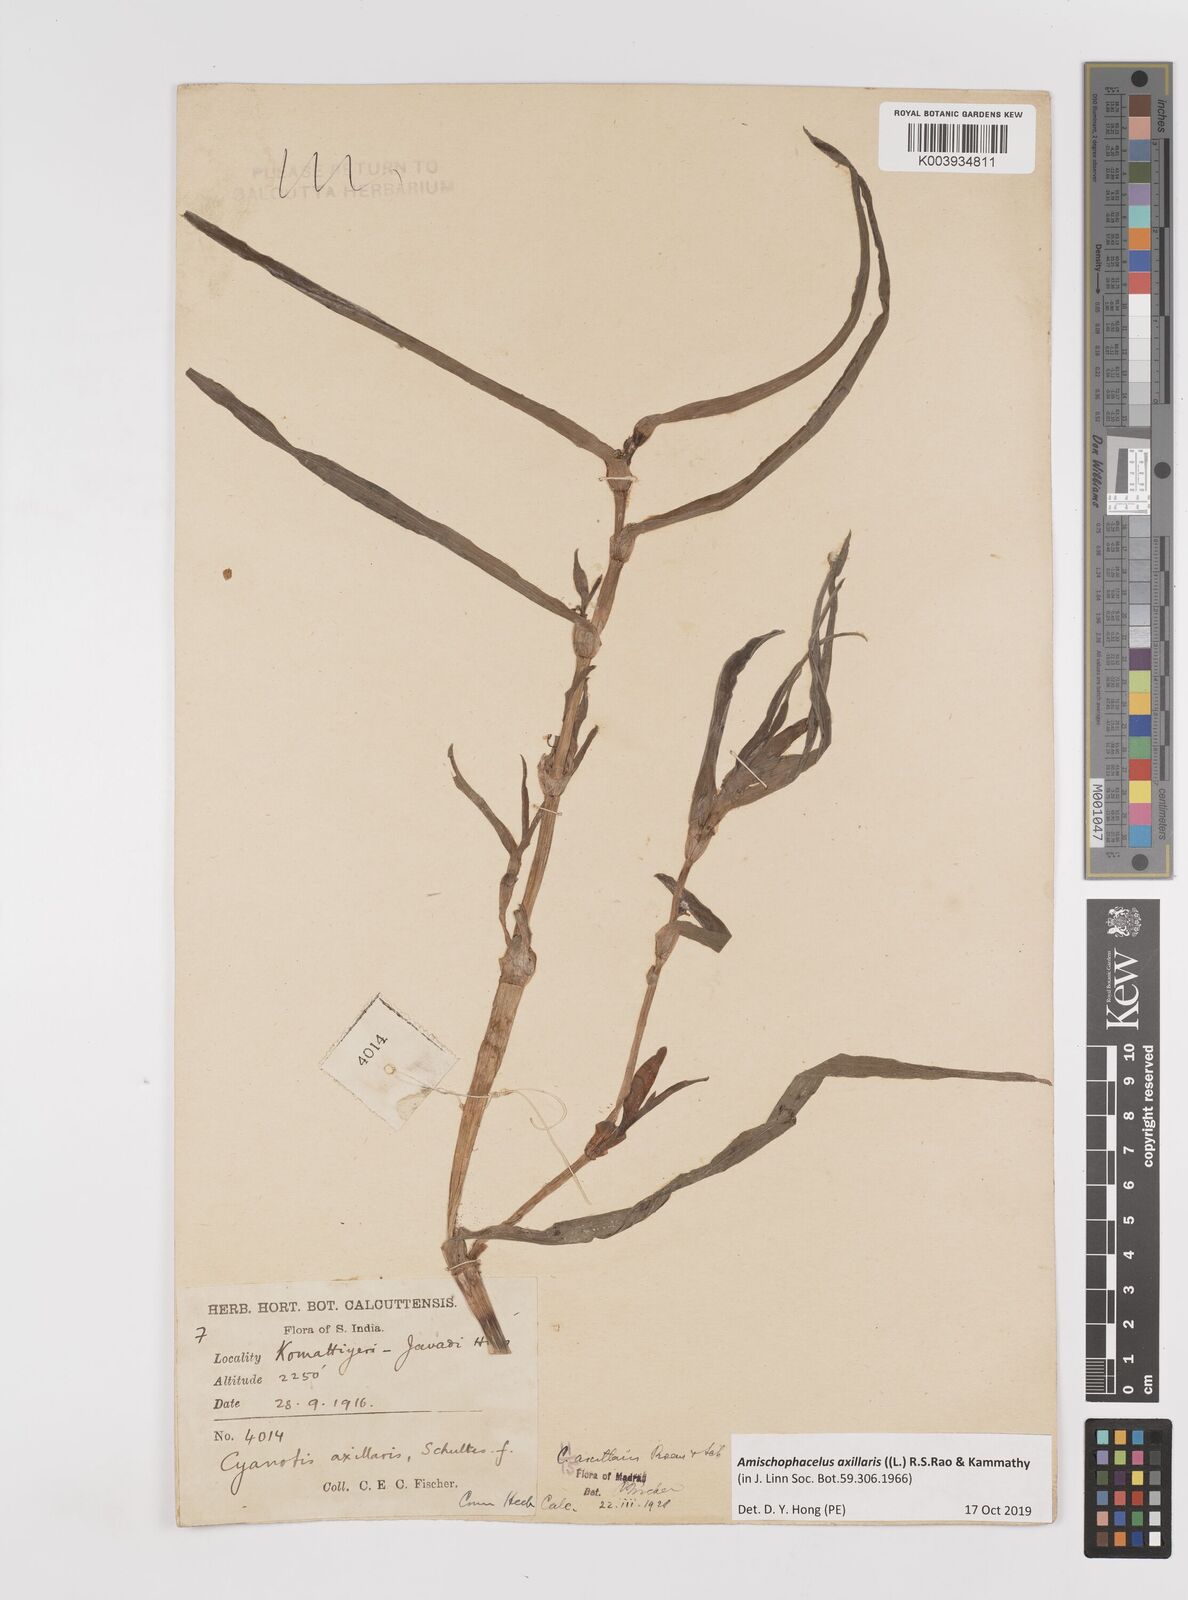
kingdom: Plantae
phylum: Tracheophyta
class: Liliopsida
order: Commelinales
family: Commelinaceae
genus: Cyanotis
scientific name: Cyanotis axillaris
